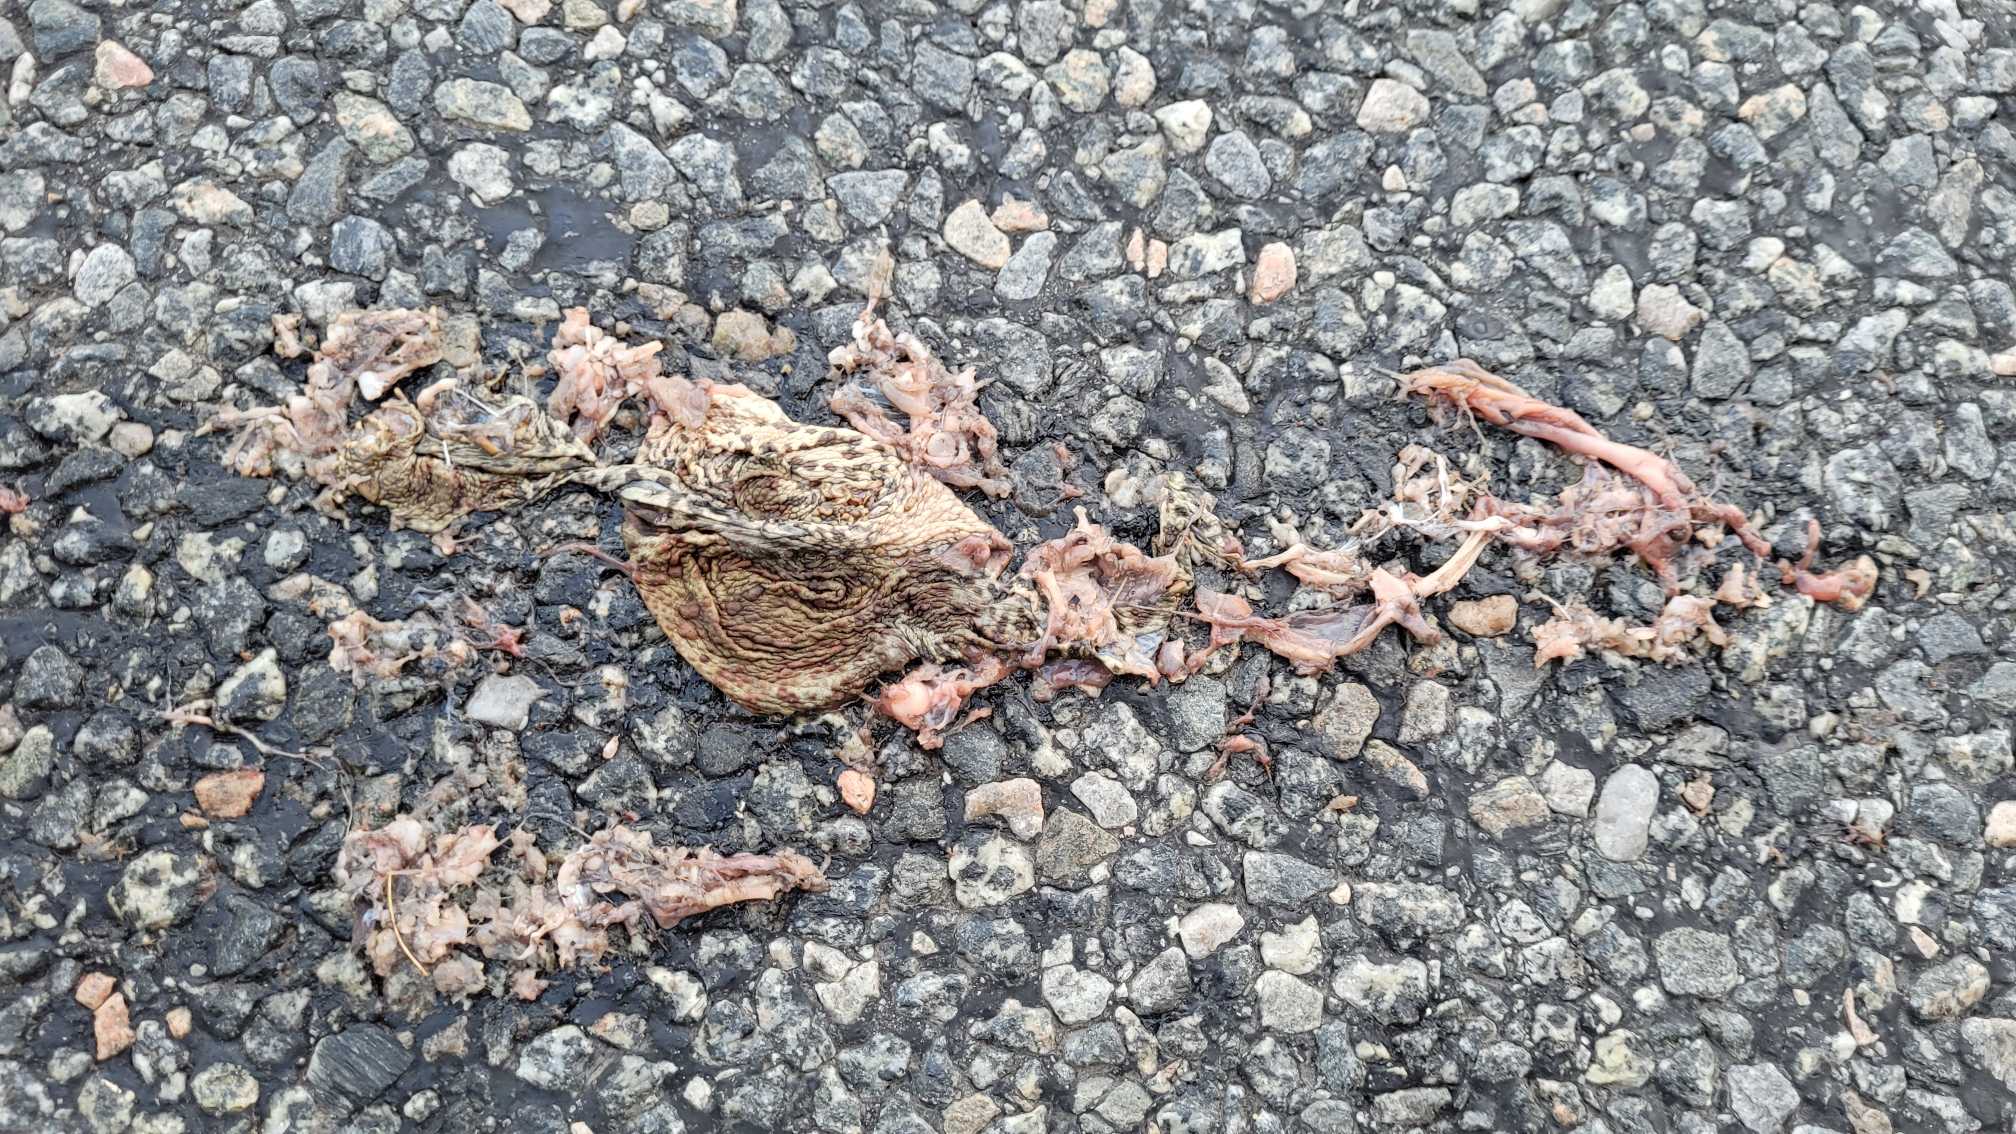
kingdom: Animalia
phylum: Chordata
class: Amphibia
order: Anura
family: Bufonidae
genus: Bufo
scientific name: Bufo bufo
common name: Skrubtudse
